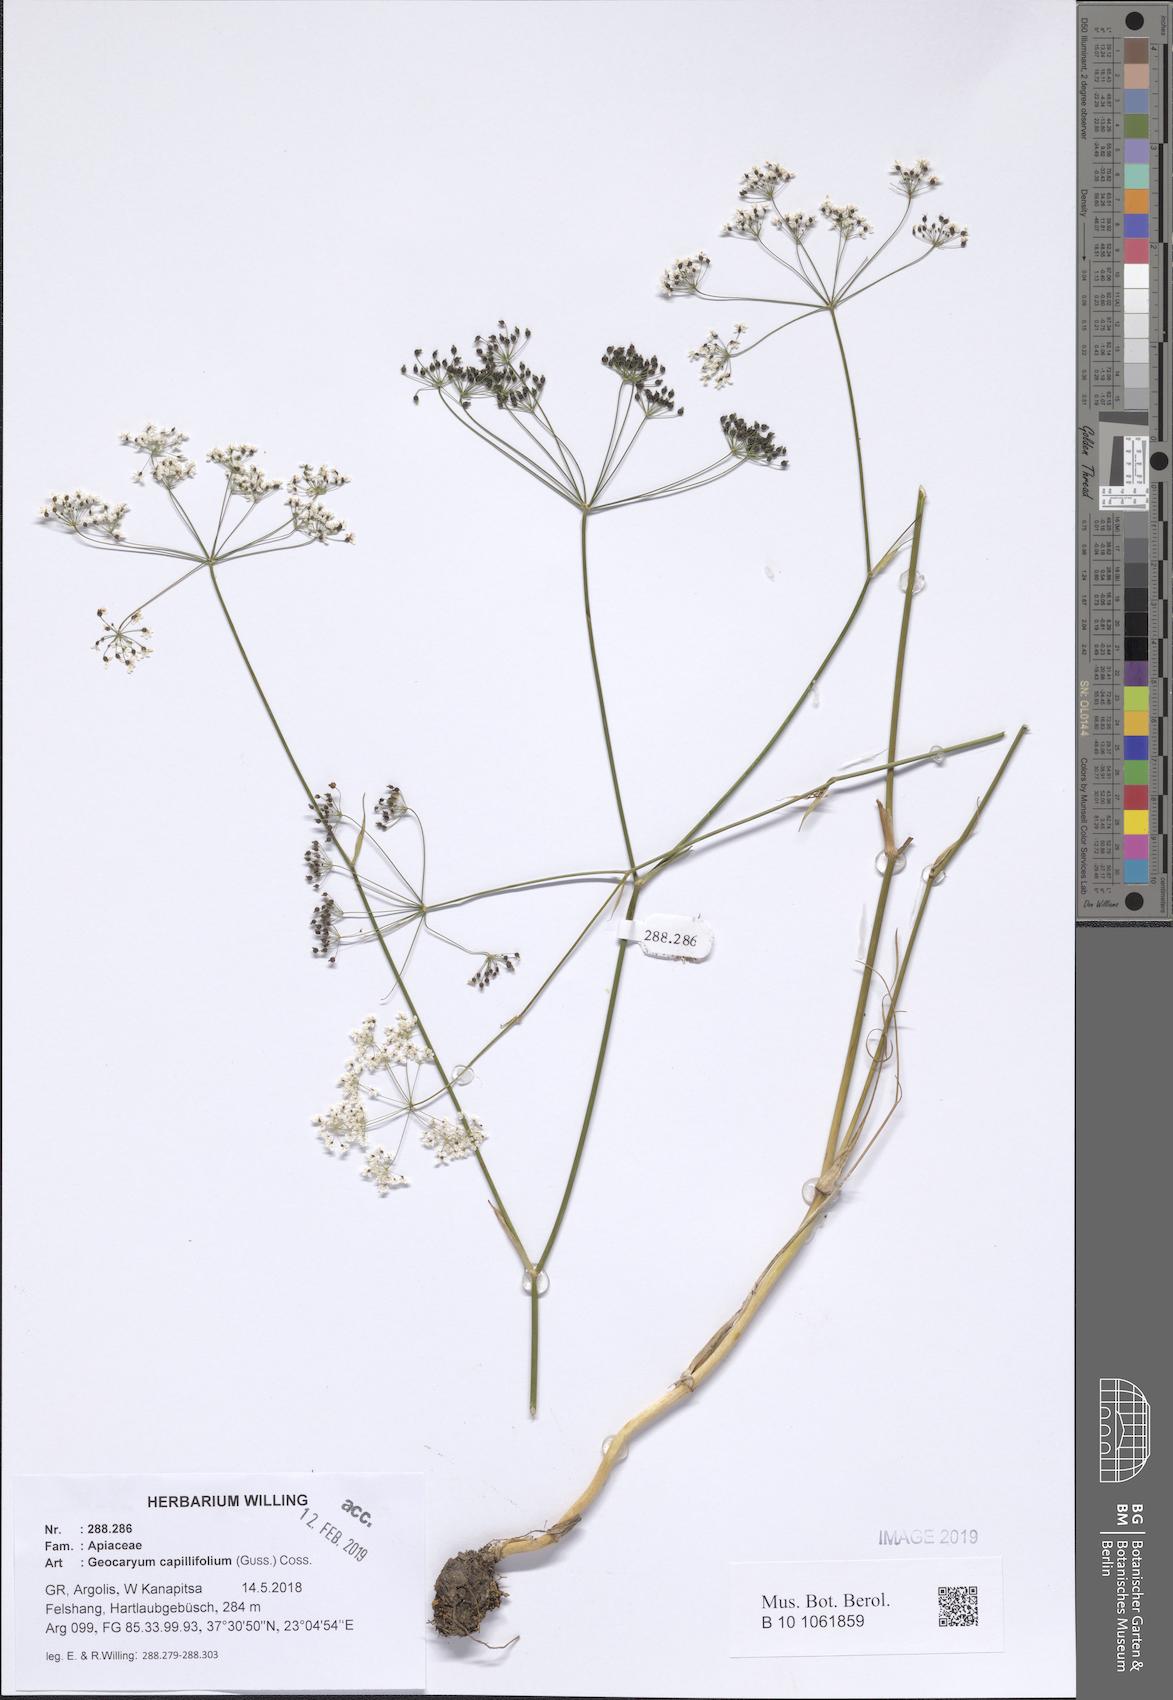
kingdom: Plantae
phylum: Tracheophyta
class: Magnoliopsida
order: Apiales
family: Apiaceae
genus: Geocaryum
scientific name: Geocaryum capillifolium
